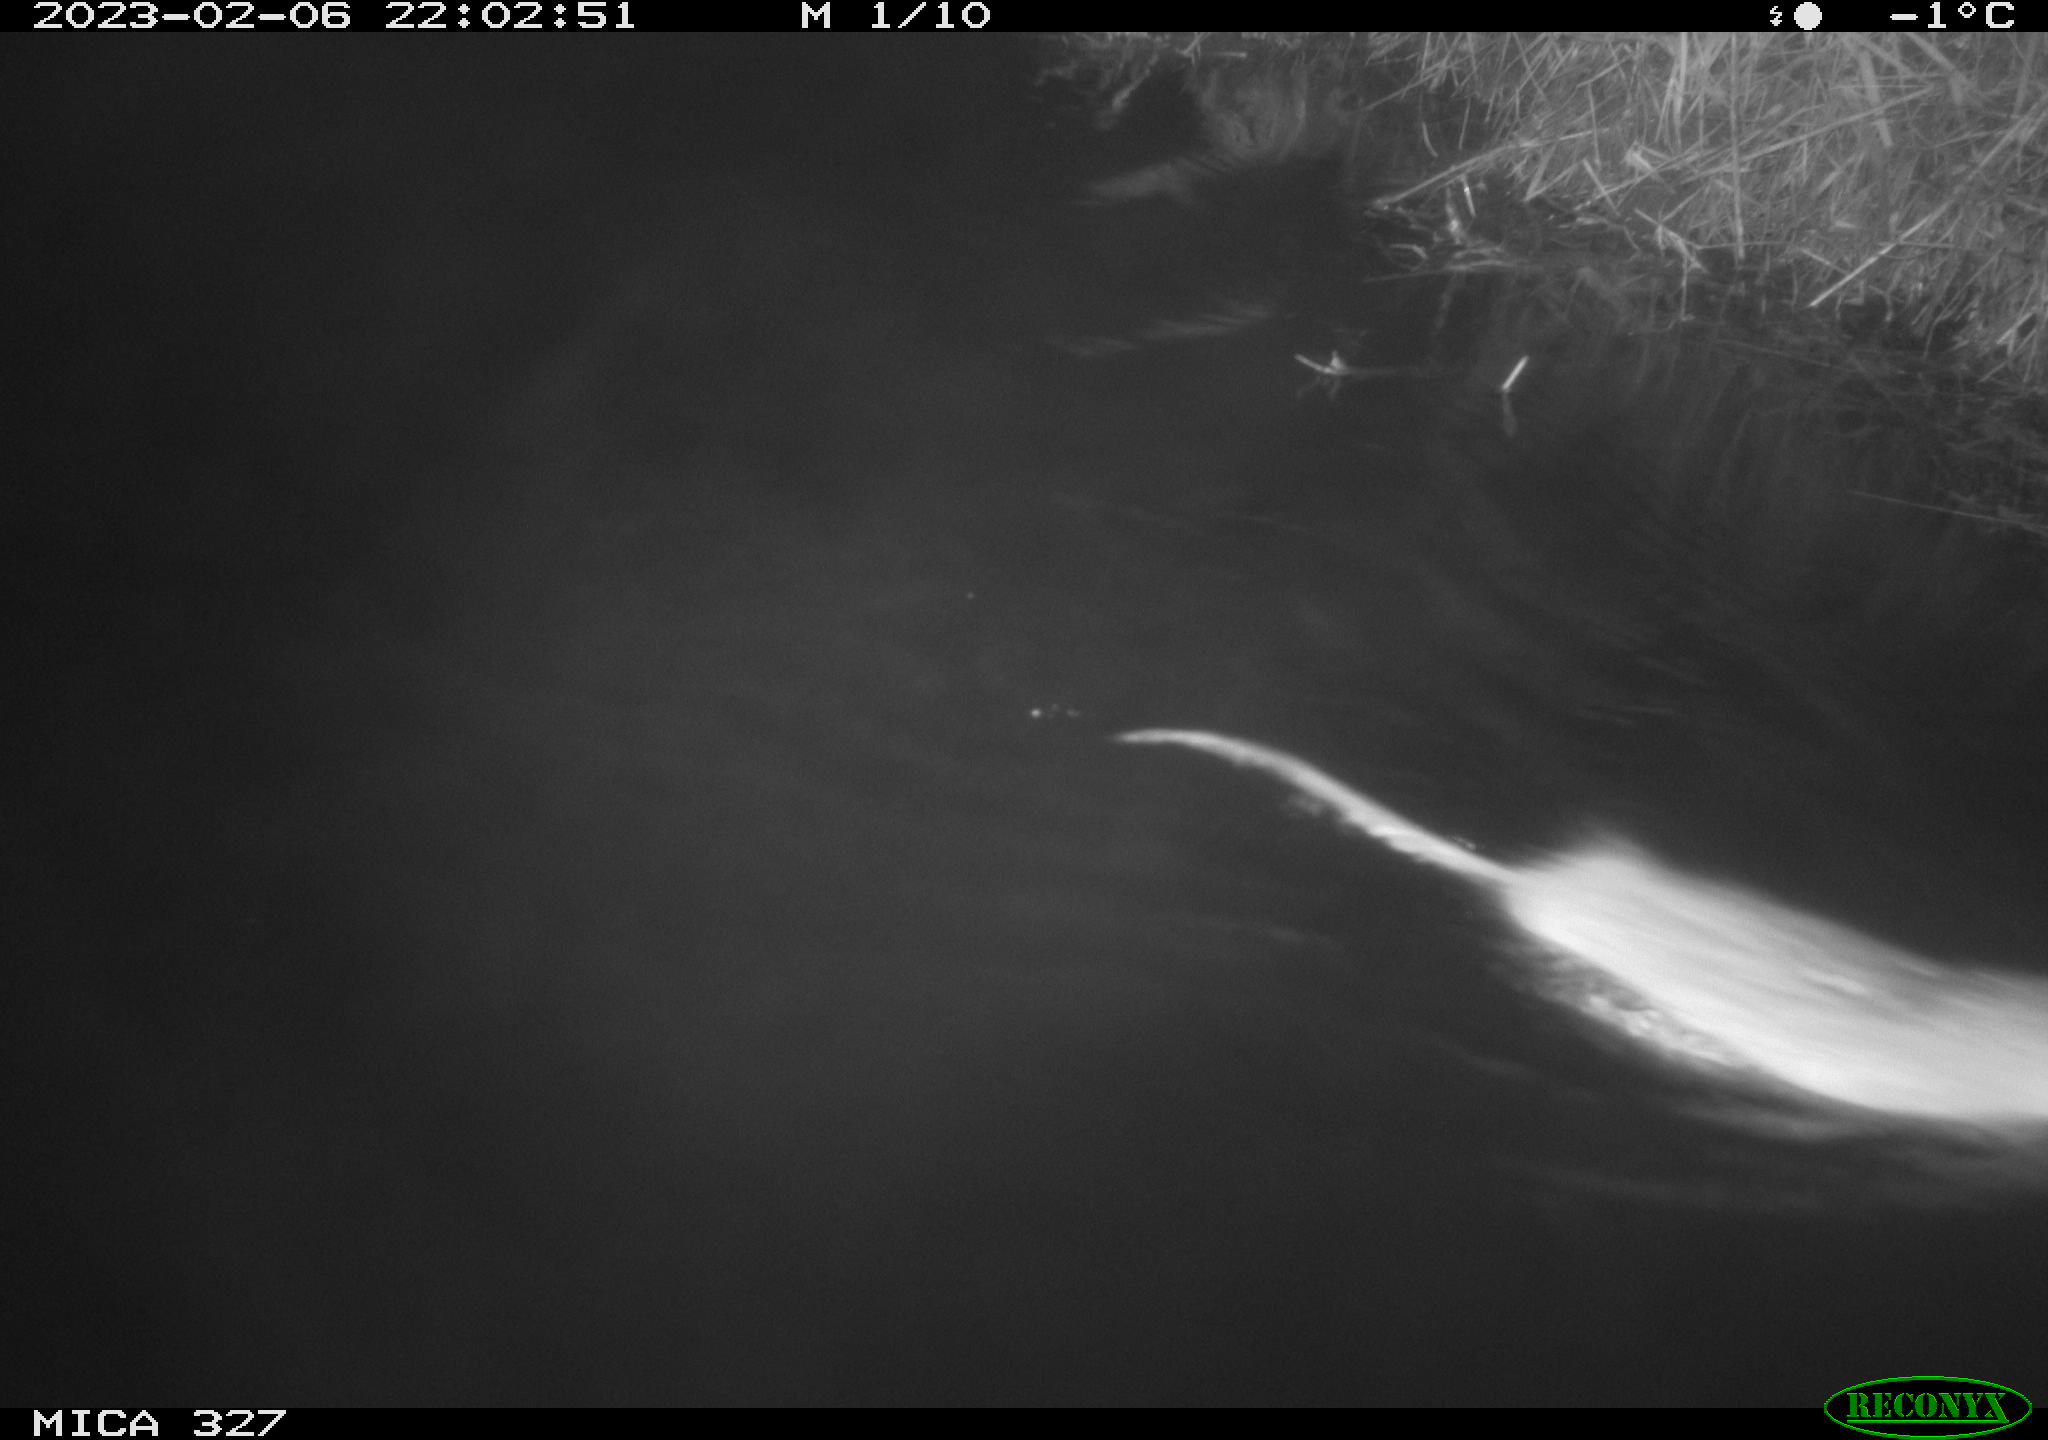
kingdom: Animalia
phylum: Chordata
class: Mammalia
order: Rodentia
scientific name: Rodentia
